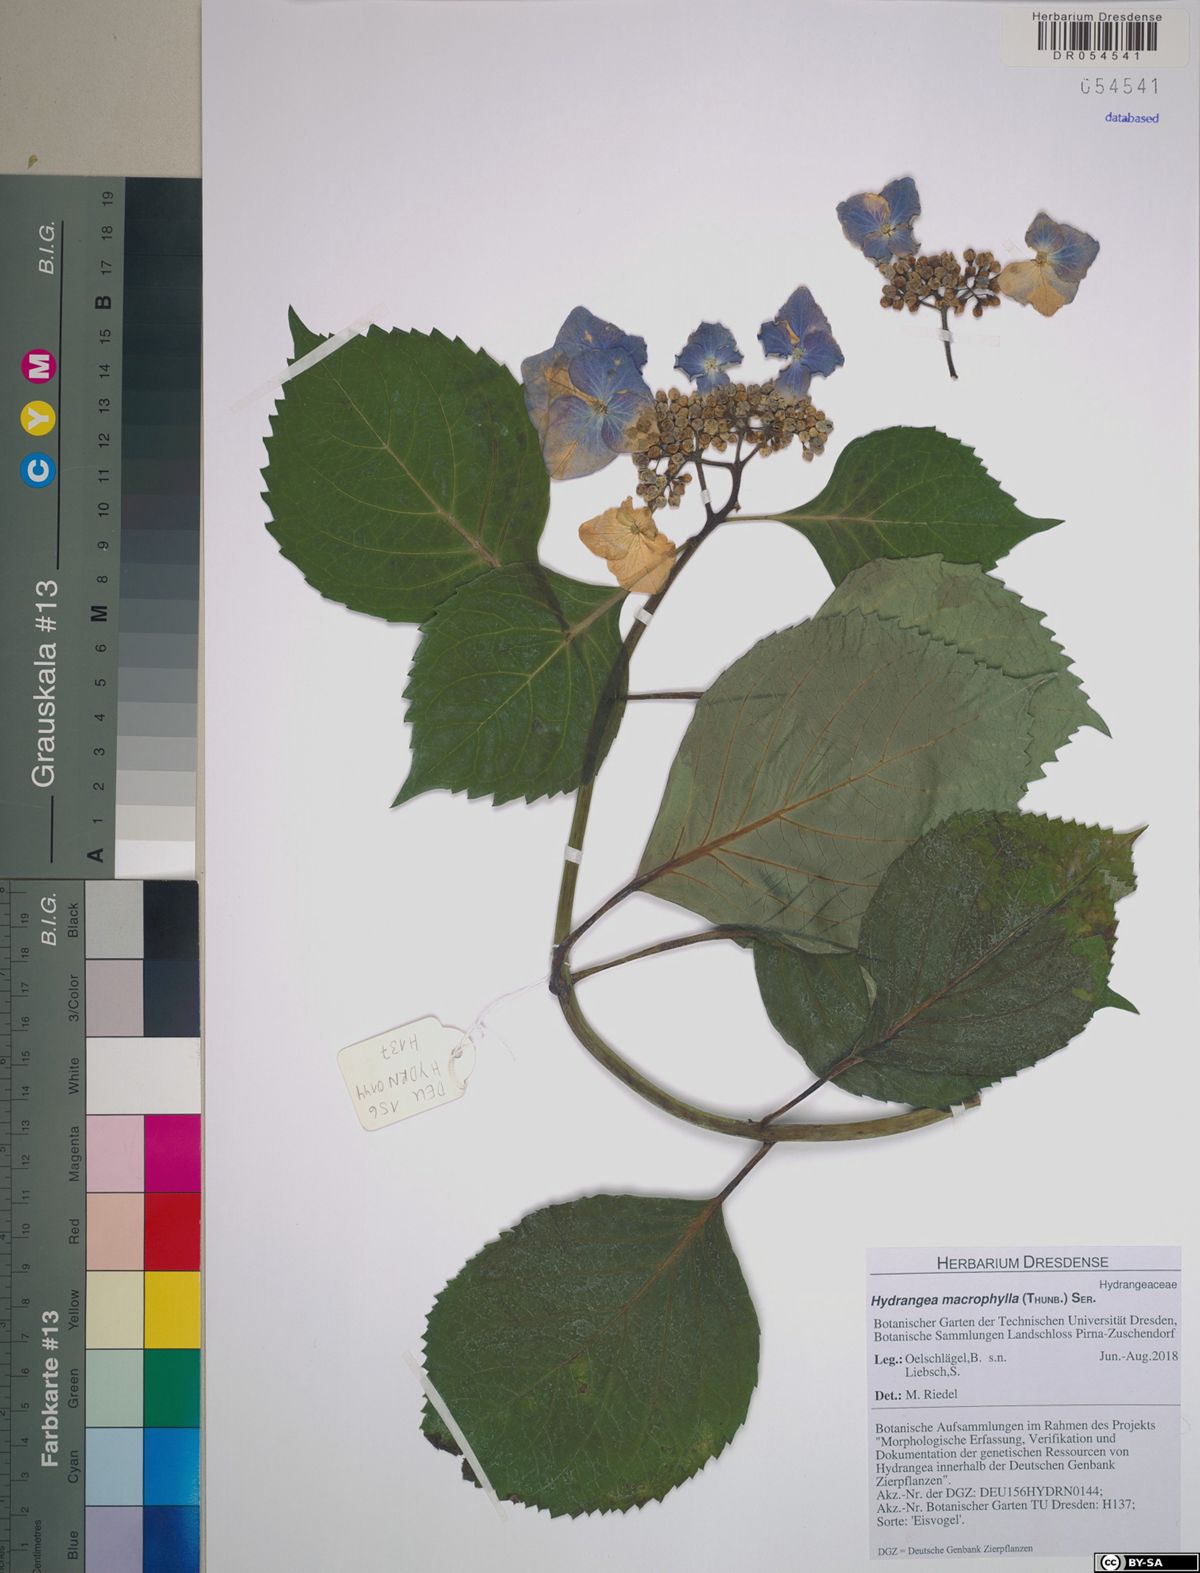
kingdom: Plantae
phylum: Tracheophyta
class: Magnoliopsida
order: Cornales
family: Hydrangeaceae
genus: Hydrangea
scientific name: Hydrangea macrophylla
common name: Hydrangea
